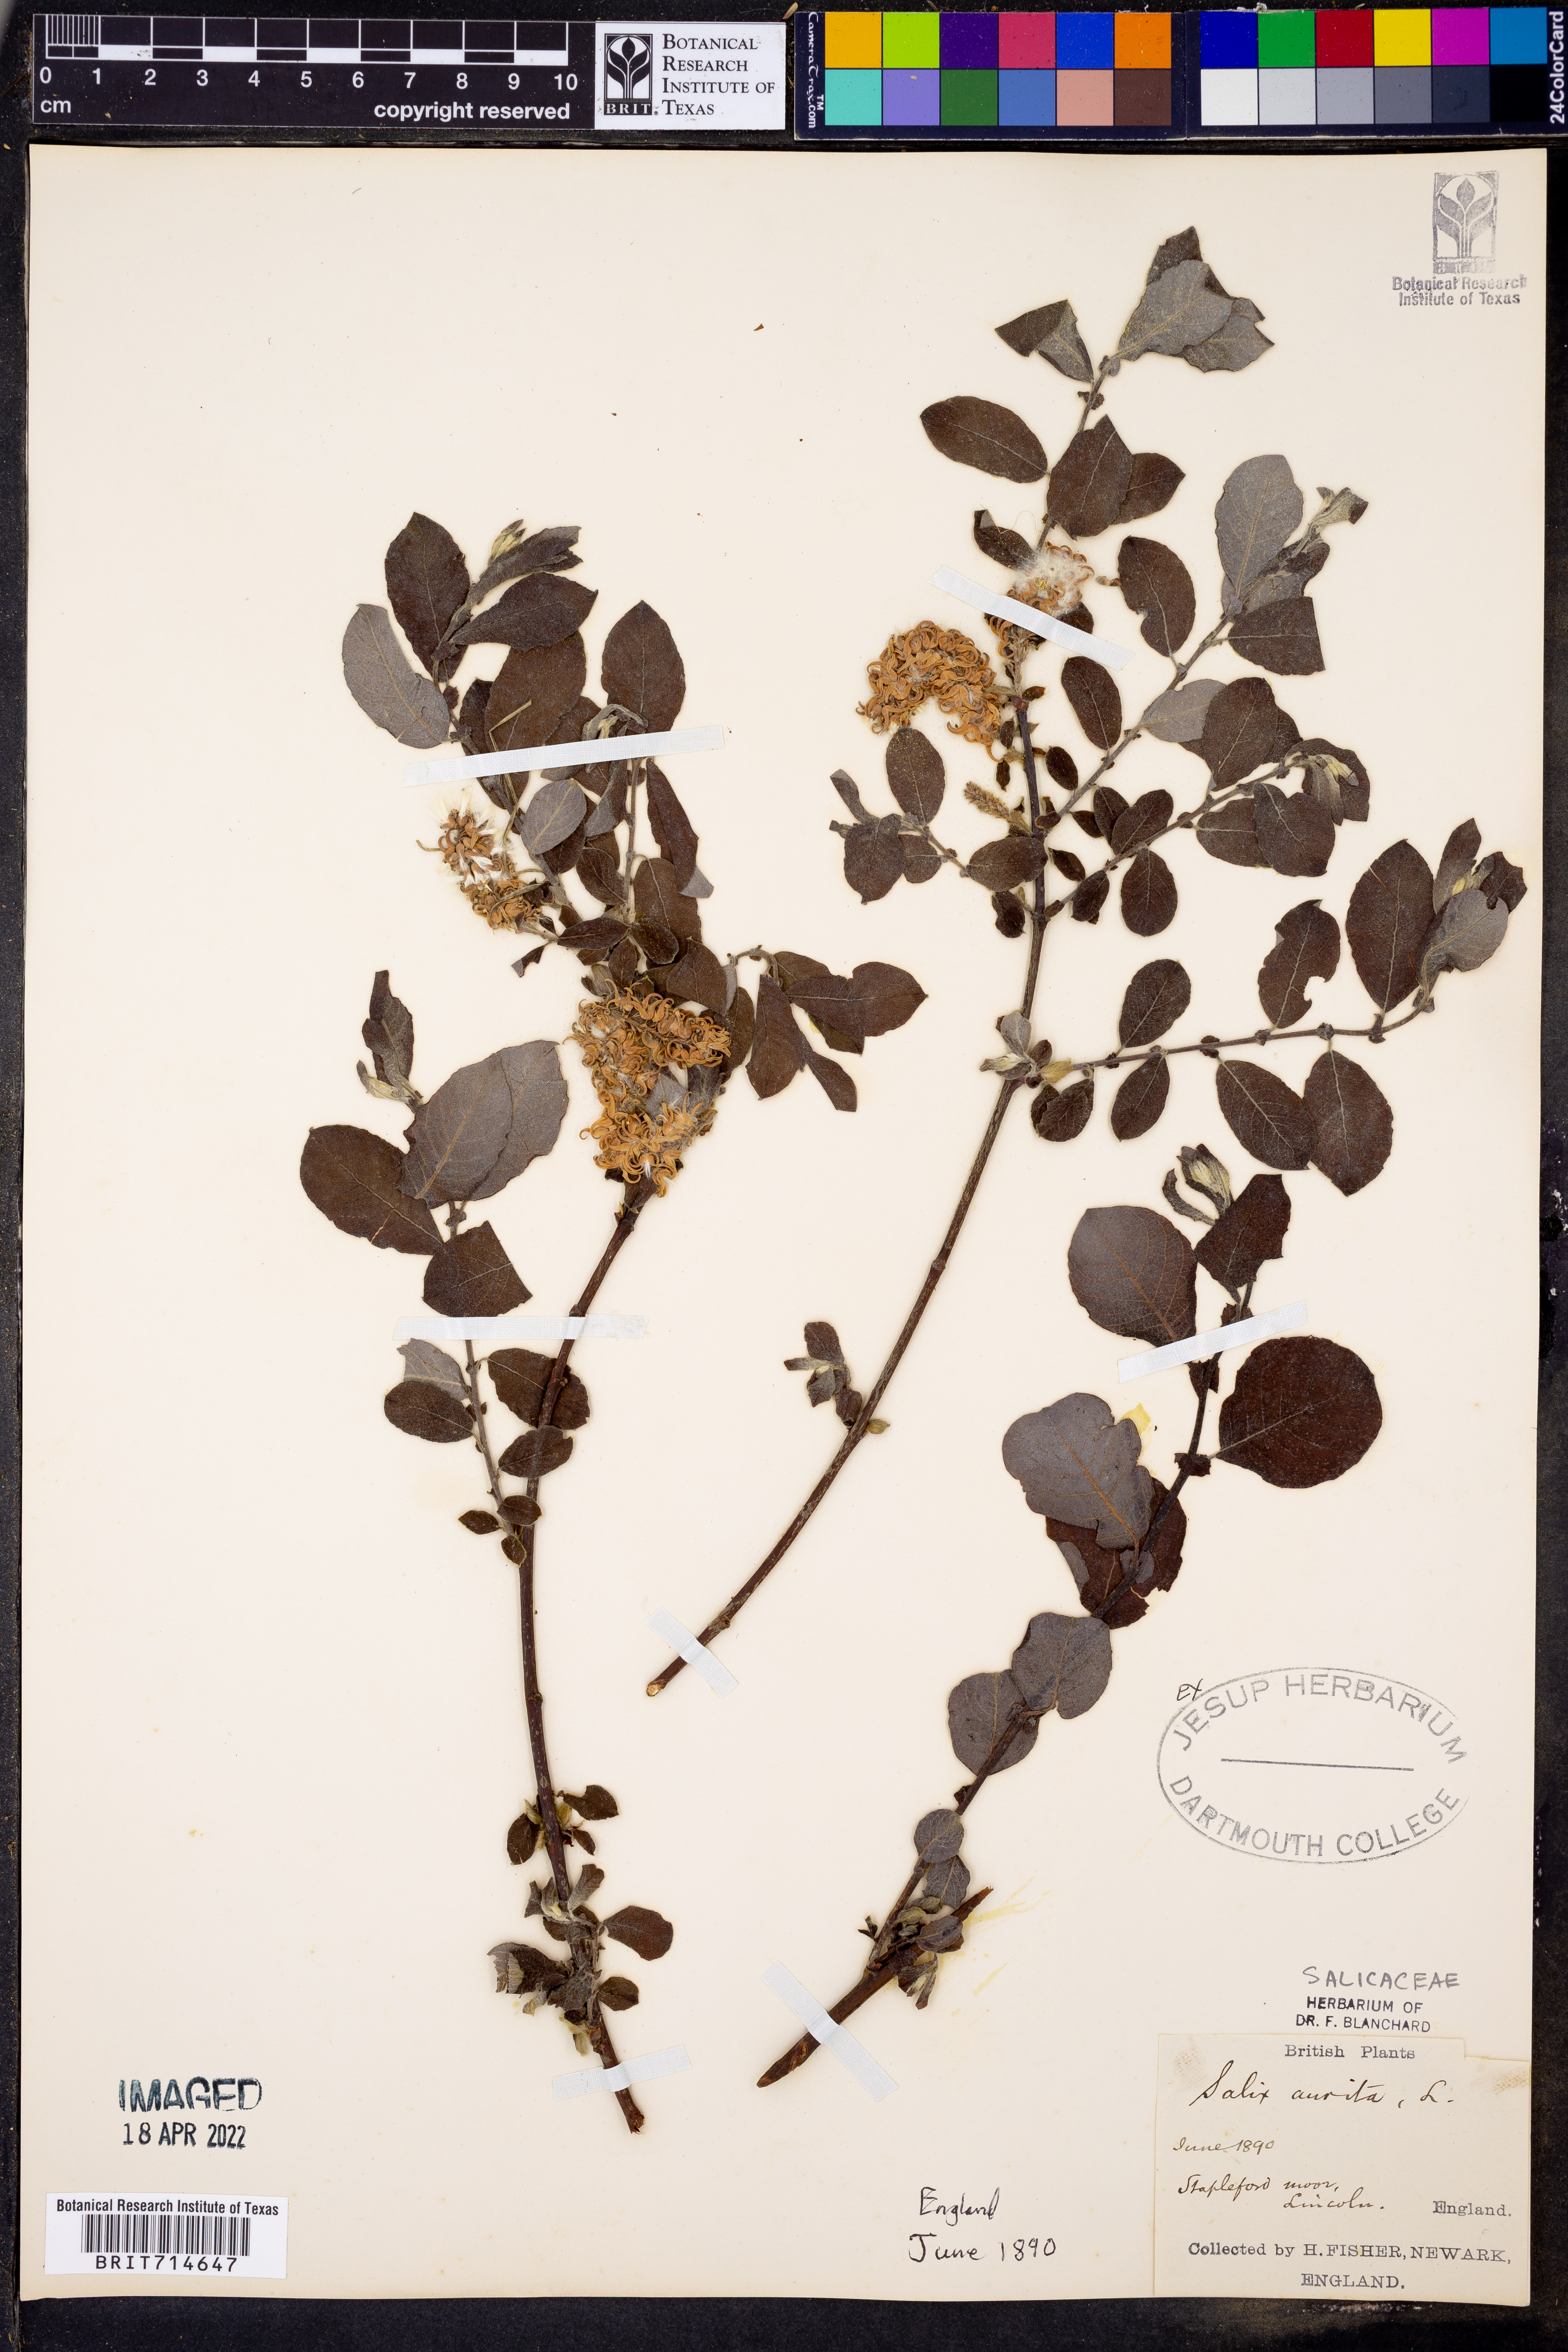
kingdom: Plantae
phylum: Tracheophyta
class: Magnoliopsida
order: Malpighiales
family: Salicaceae
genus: Salix
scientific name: Salix aurita
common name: Eared willow
